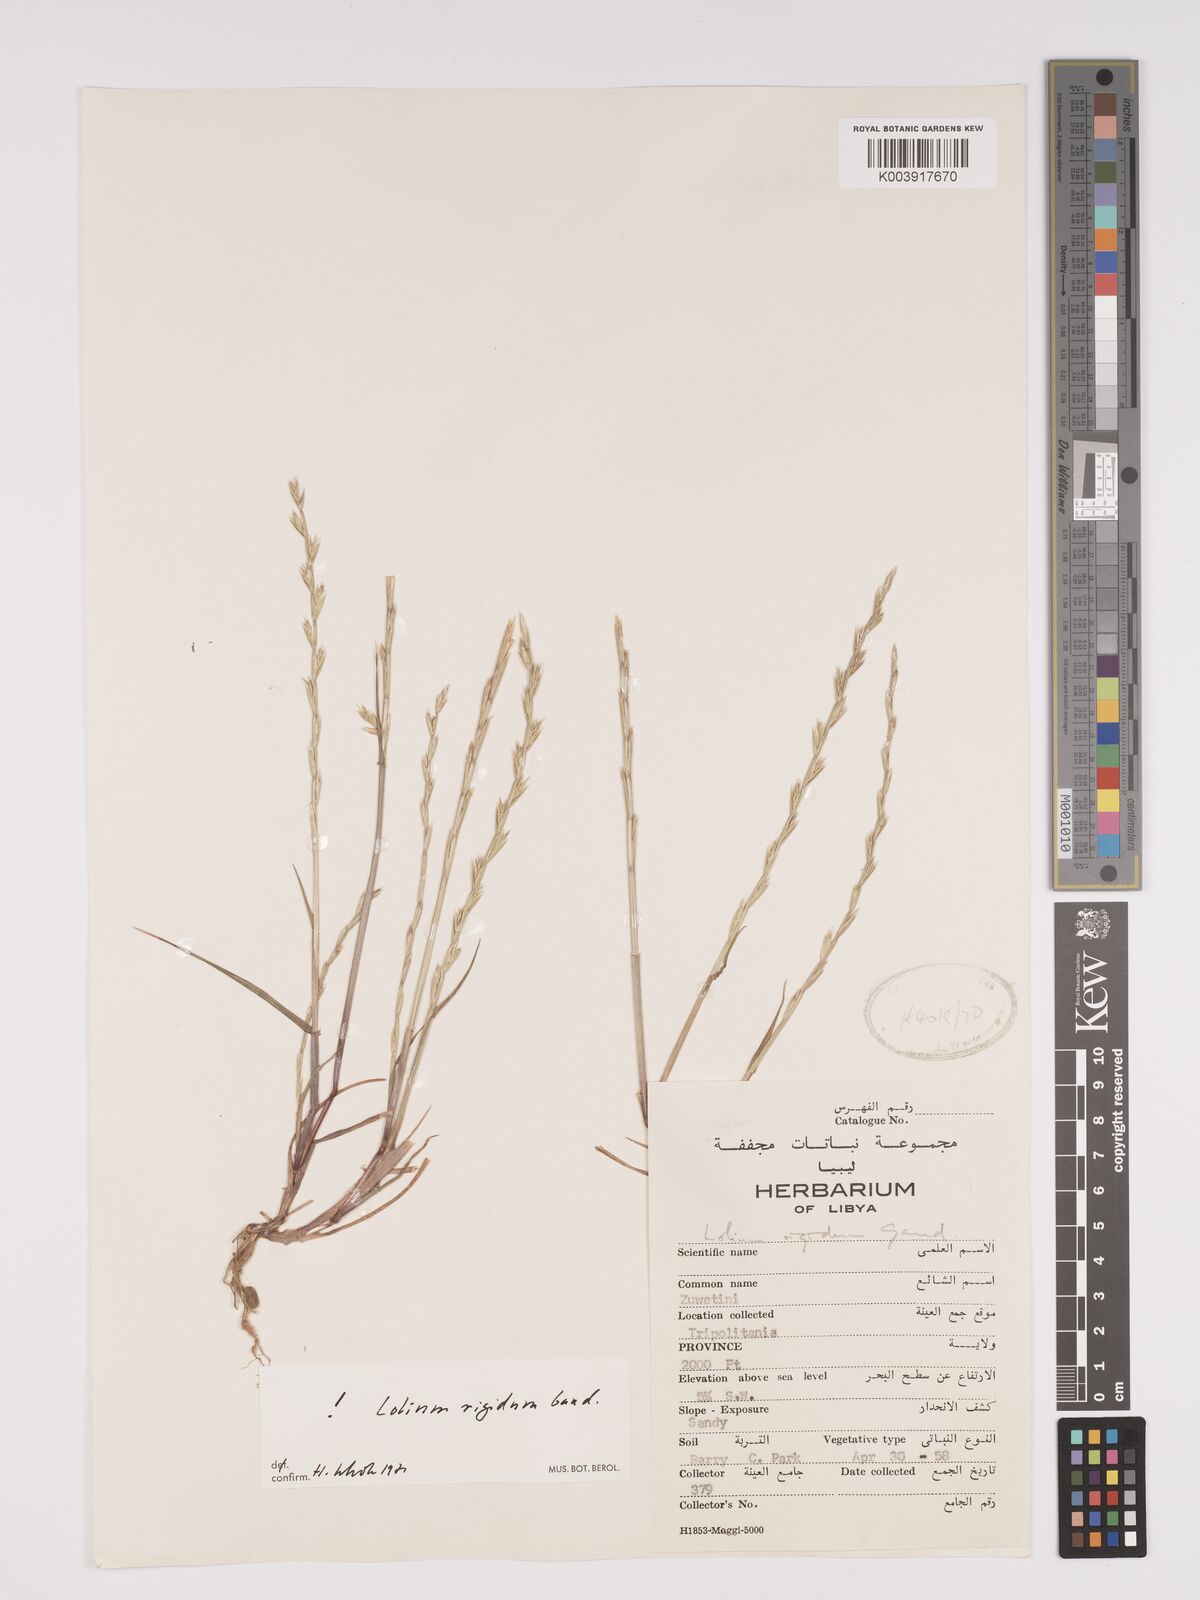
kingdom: Plantae
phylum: Tracheophyta
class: Liliopsida
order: Poales
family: Poaceae
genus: Lolium
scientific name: Lolium rigidum
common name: Wimmera ryegrass
